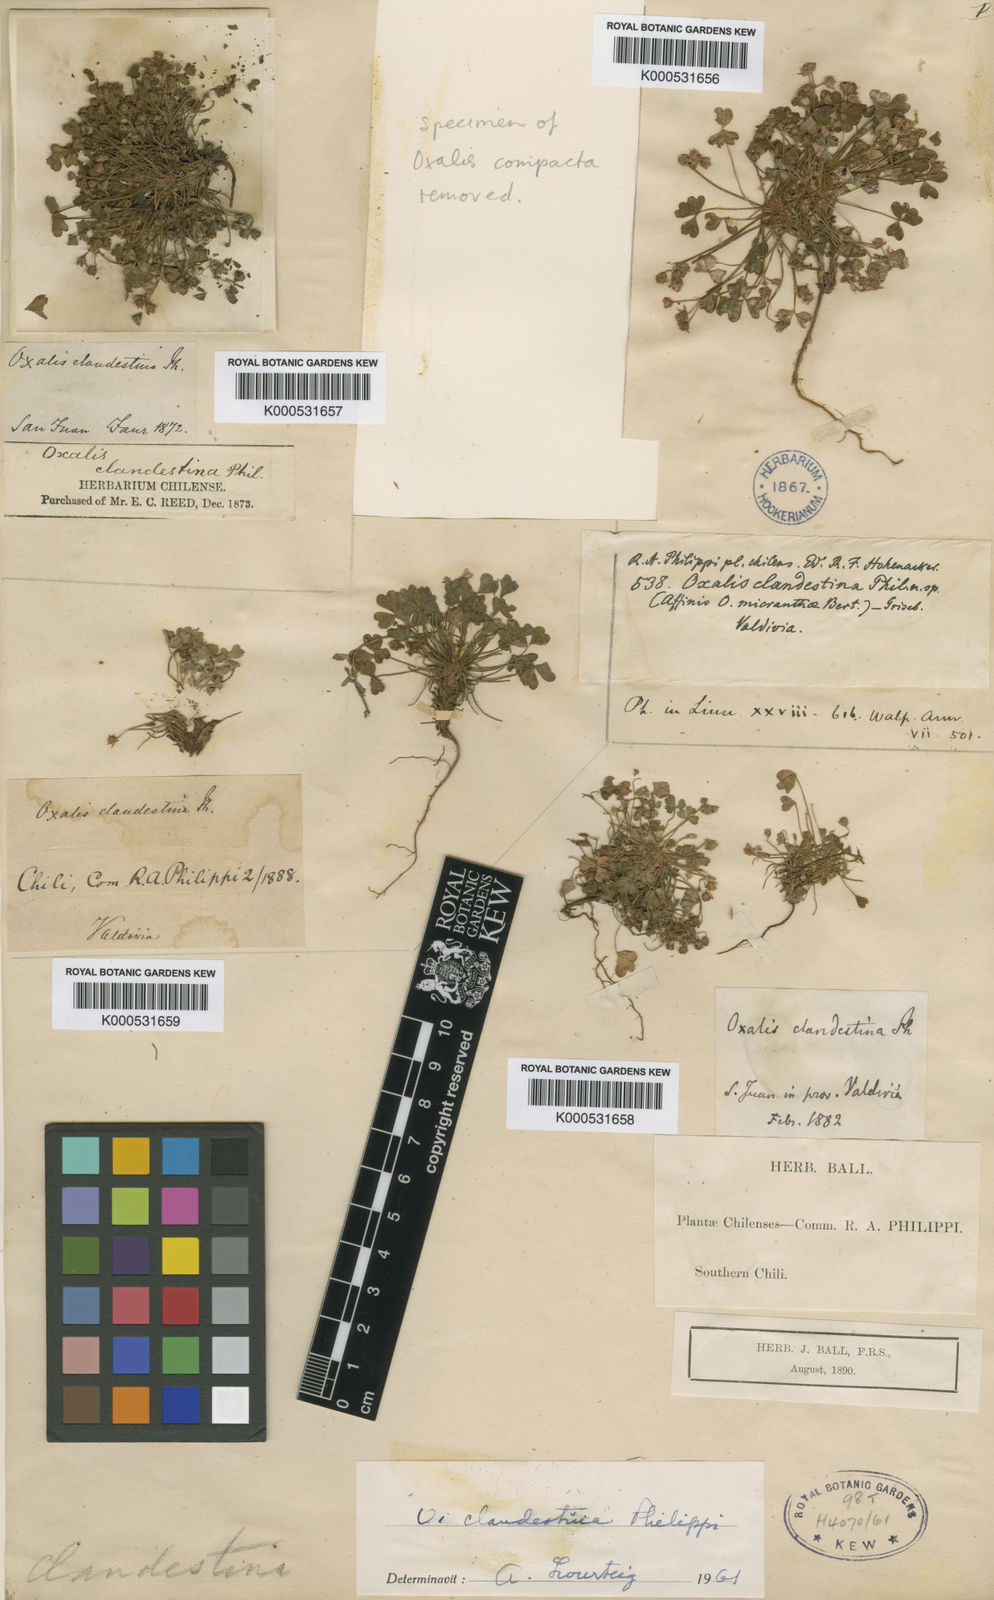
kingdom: Plantae
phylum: Tracheophyta
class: Magnoliopsida
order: Oxalidales
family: Oxalidaceae
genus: Oxalis
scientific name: Oxalis clandestina
